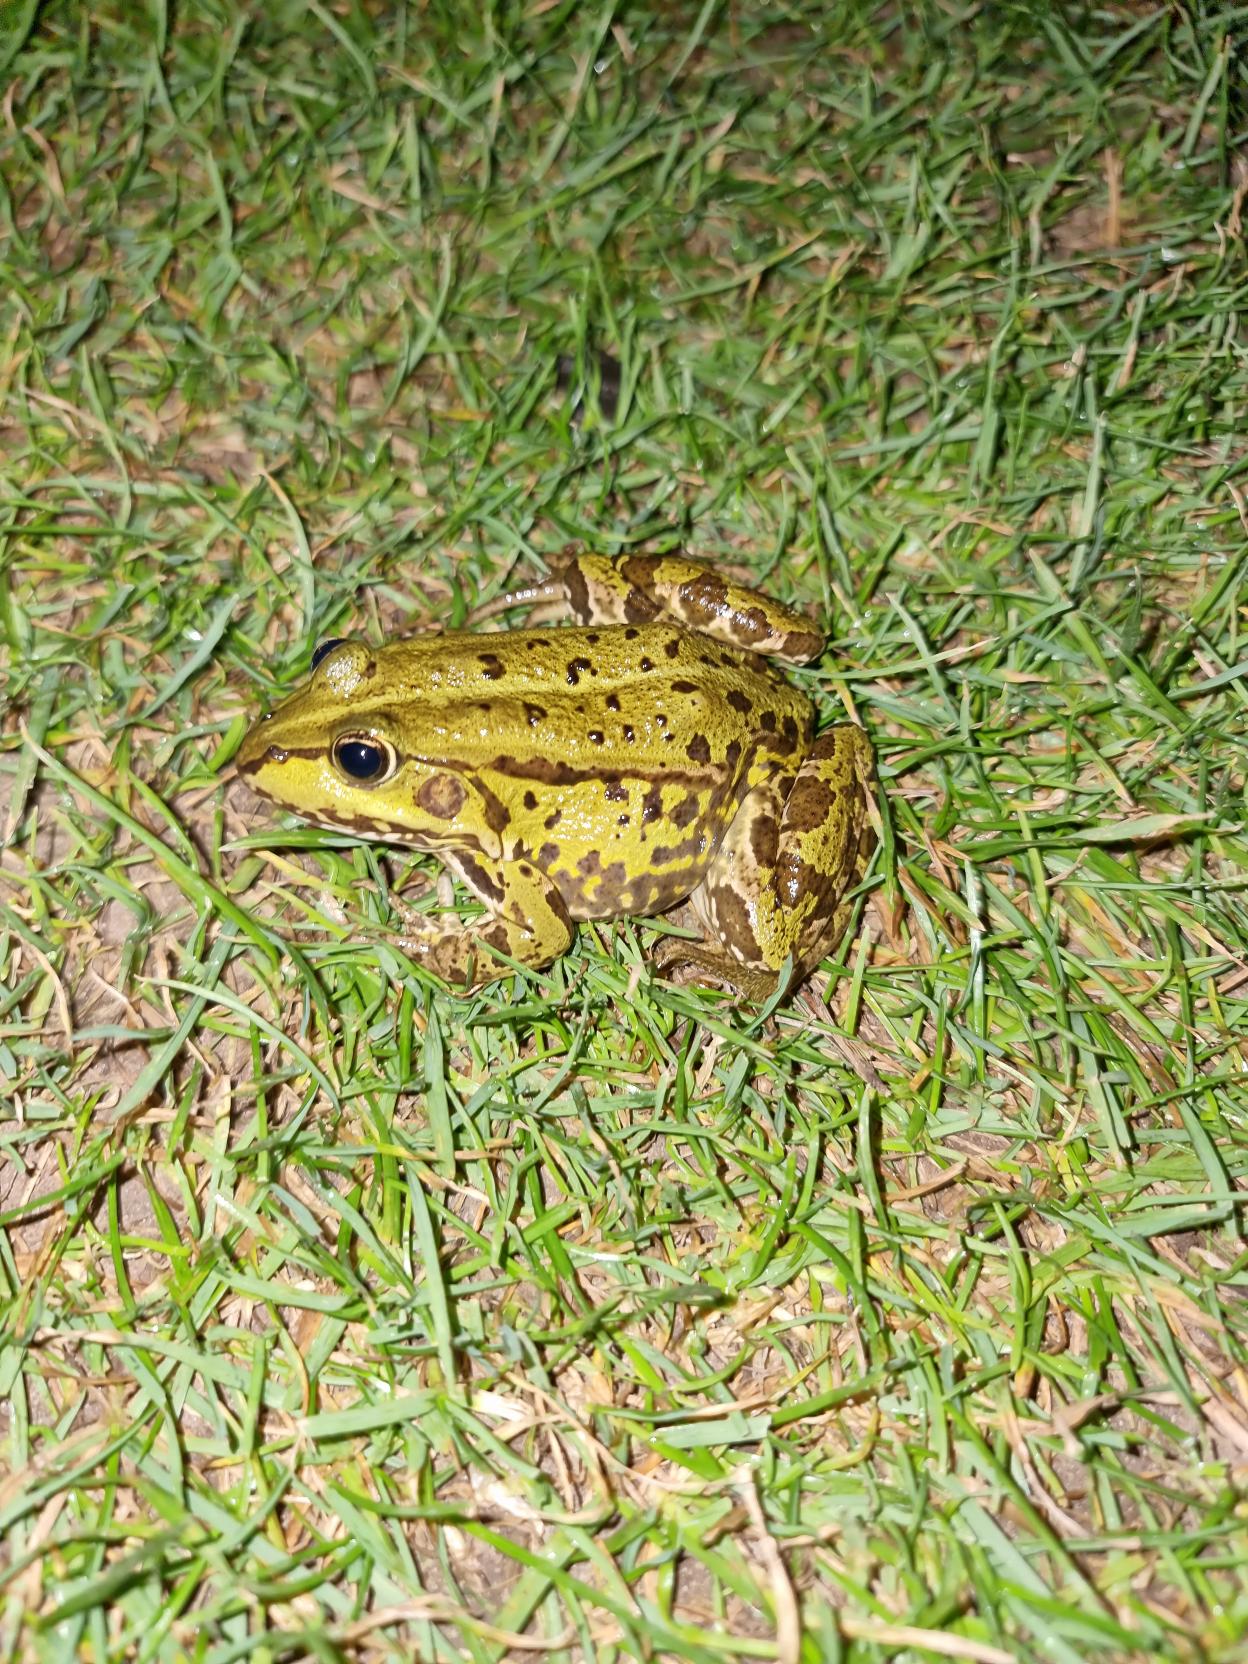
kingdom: Animalia
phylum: Chordata
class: Amphibia
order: Anura
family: Ranidae
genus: Pelophylax
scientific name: Pelophylax lessonae
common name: Grøn frø
